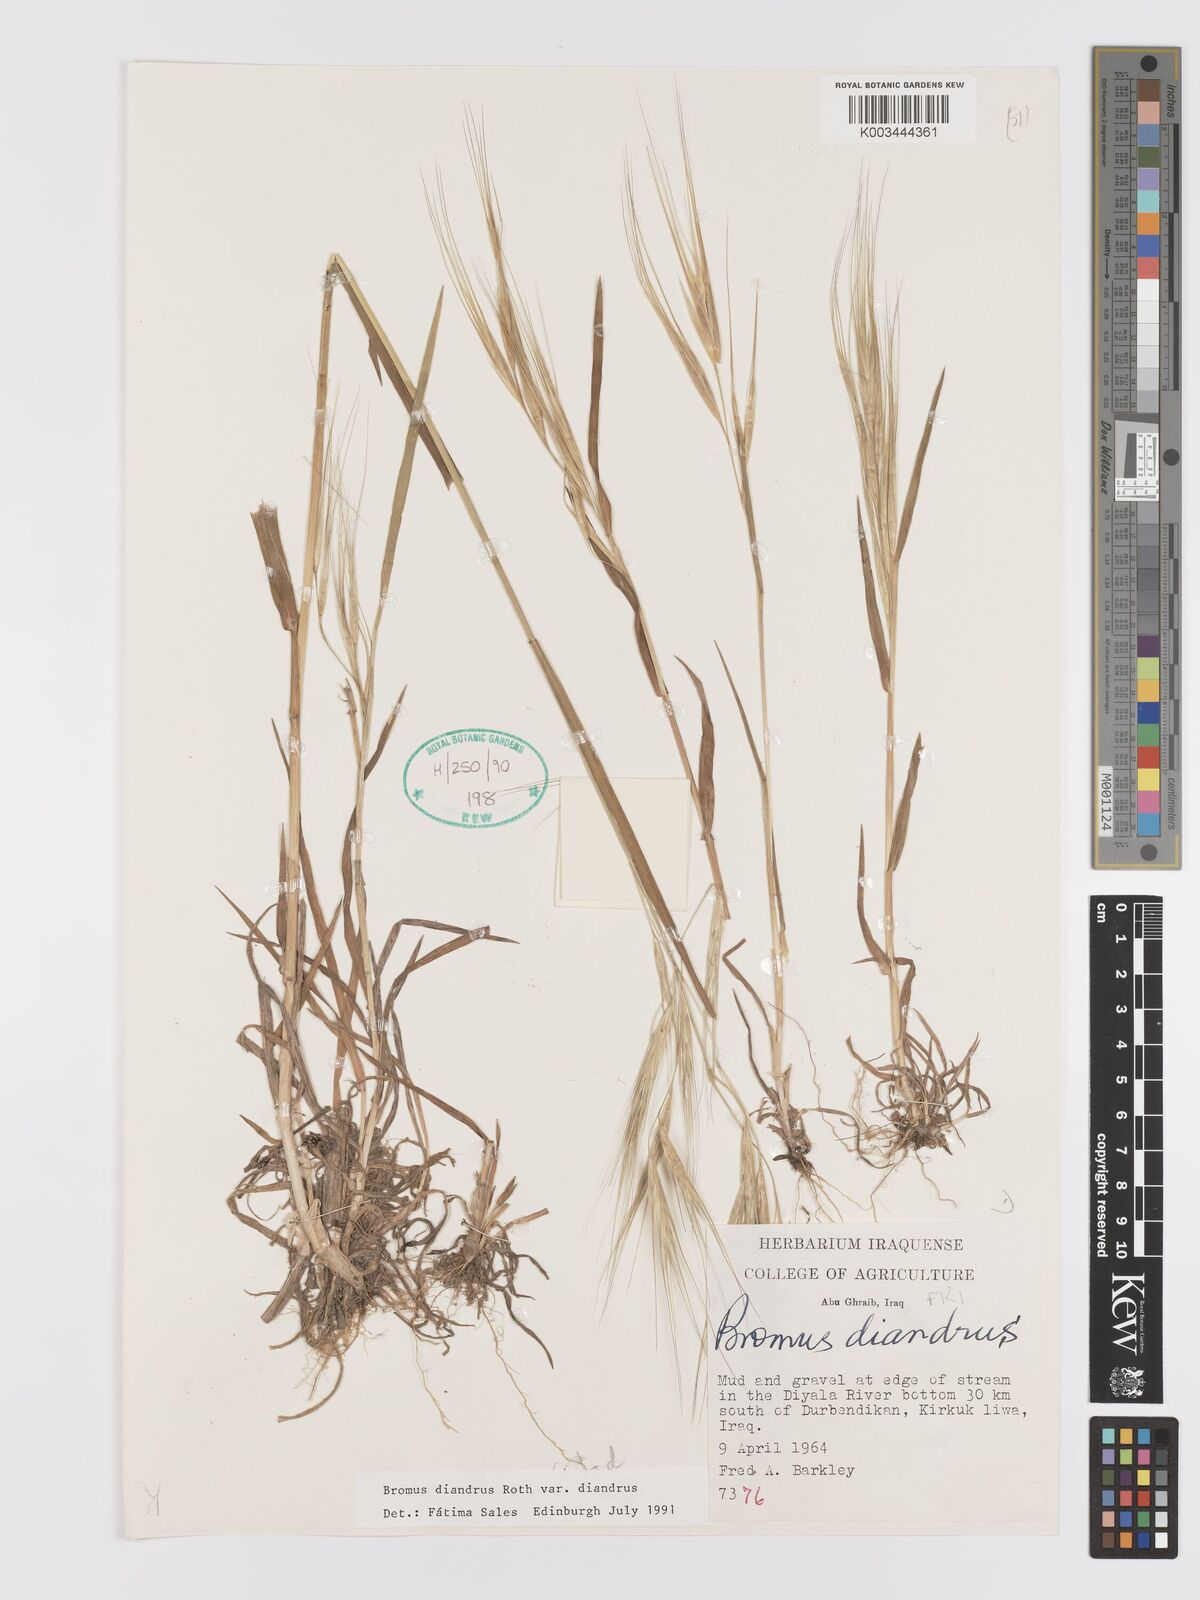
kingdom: Plantae
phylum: Tracheophyta
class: Liliopsida
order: Poales
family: Poaceae
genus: Bromus
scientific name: Bromus diandrus
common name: Ripgut brome
